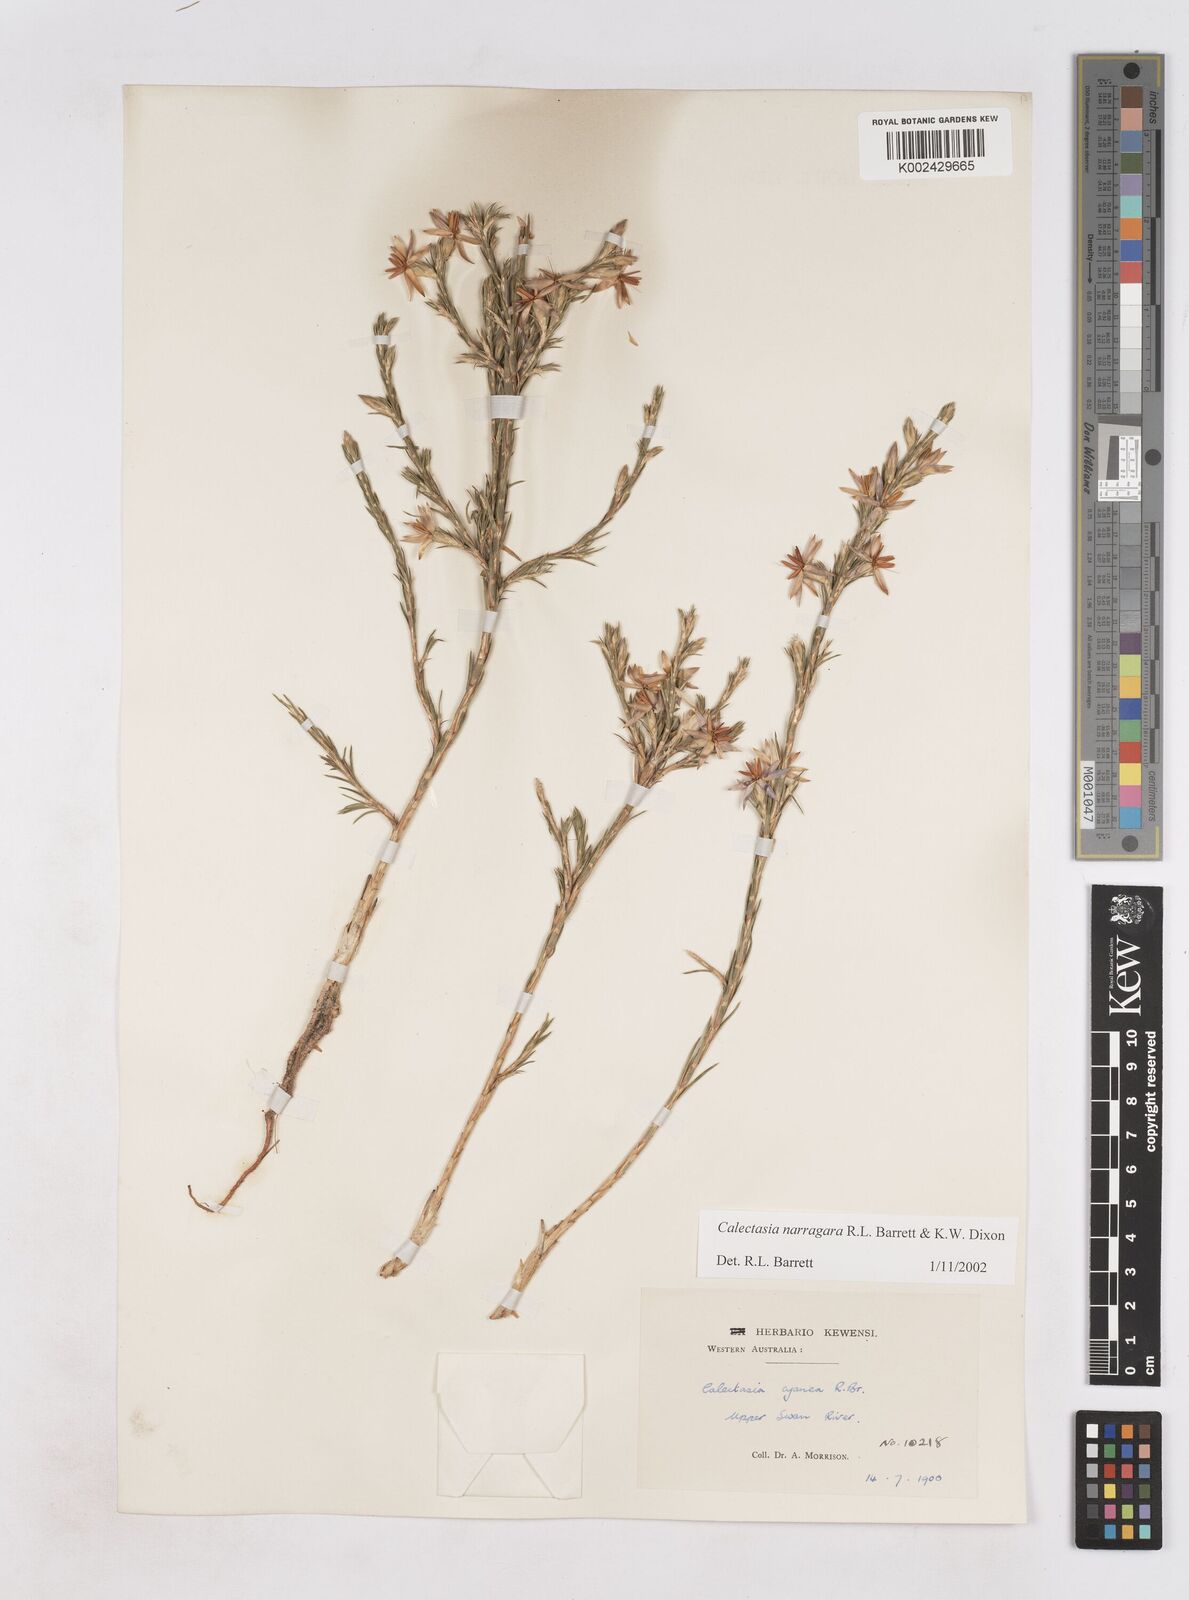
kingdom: Plantae
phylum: Tracheophyta
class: Liliopsida
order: Arecales
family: Dasypogonaceae
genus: Calectasia
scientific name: Calectasia narragara
